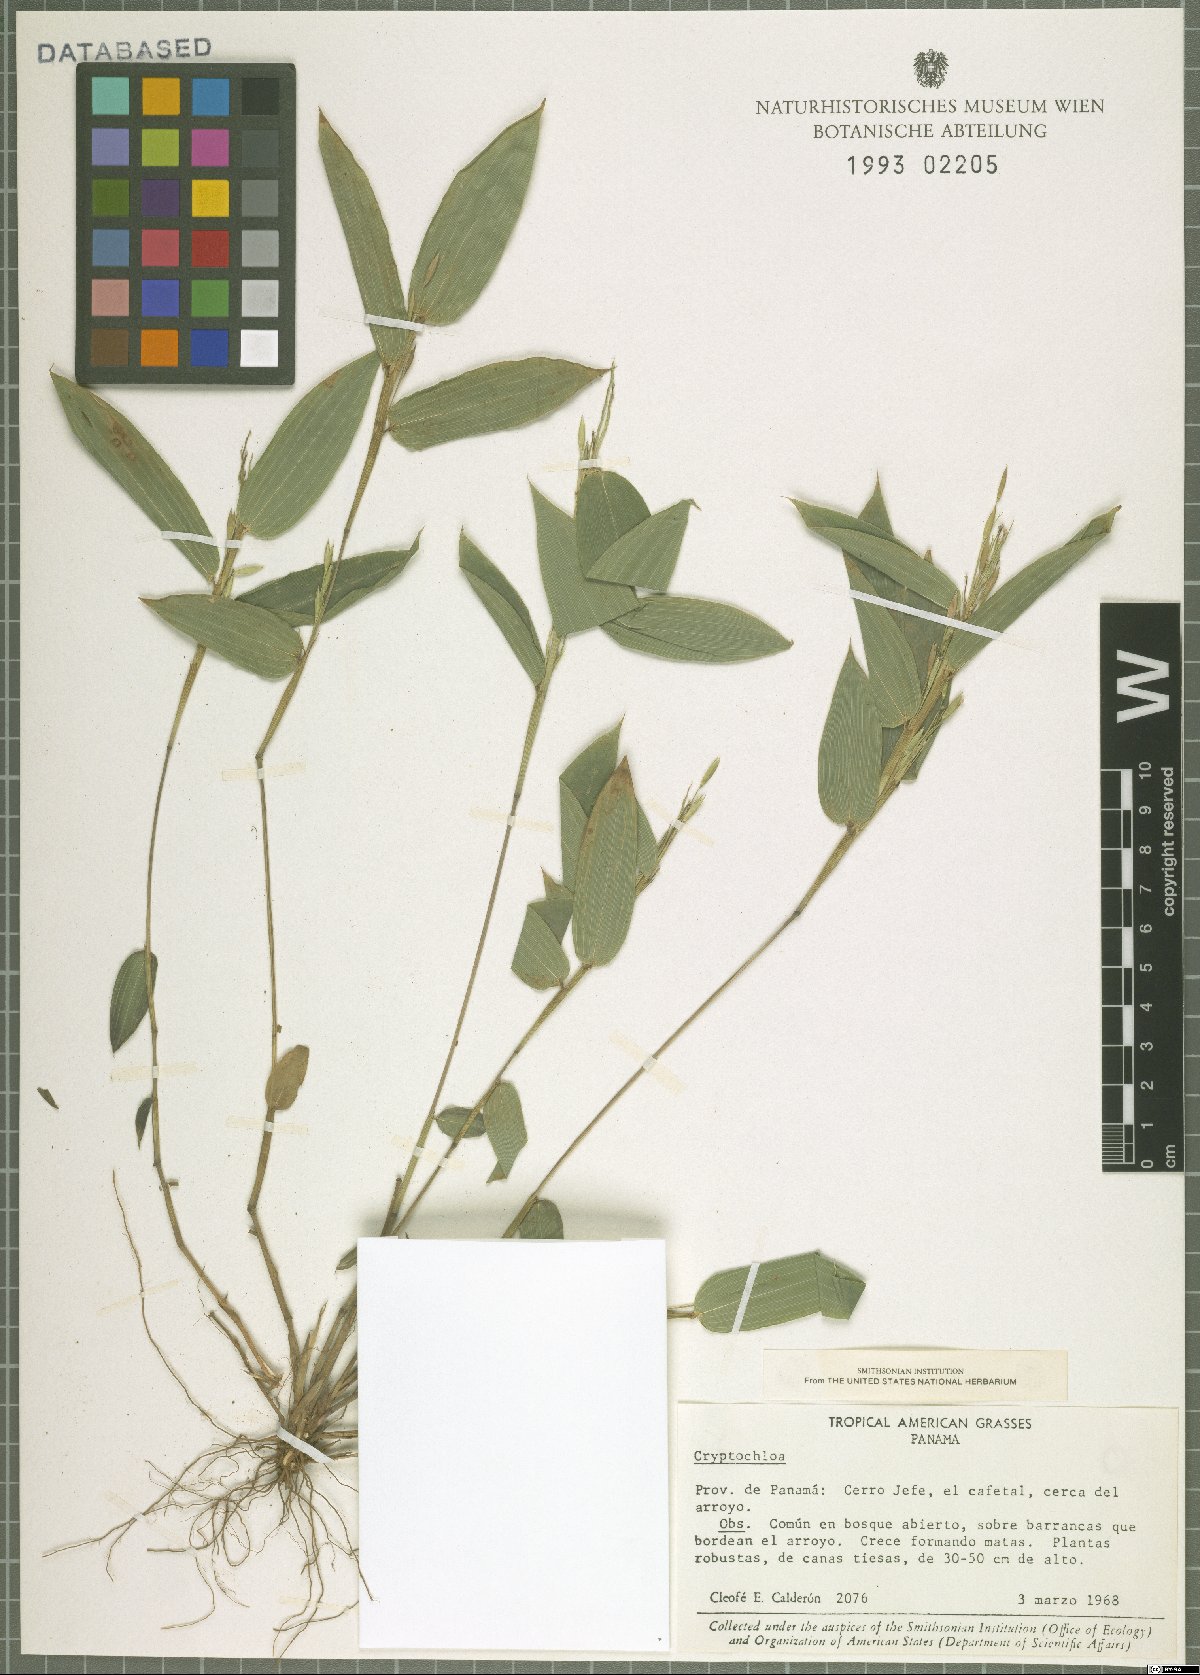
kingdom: Plantae
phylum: Tracheophyta
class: Liliopsida
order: Poales
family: Poaceae
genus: Cryptochloa
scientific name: Cryptochloa
